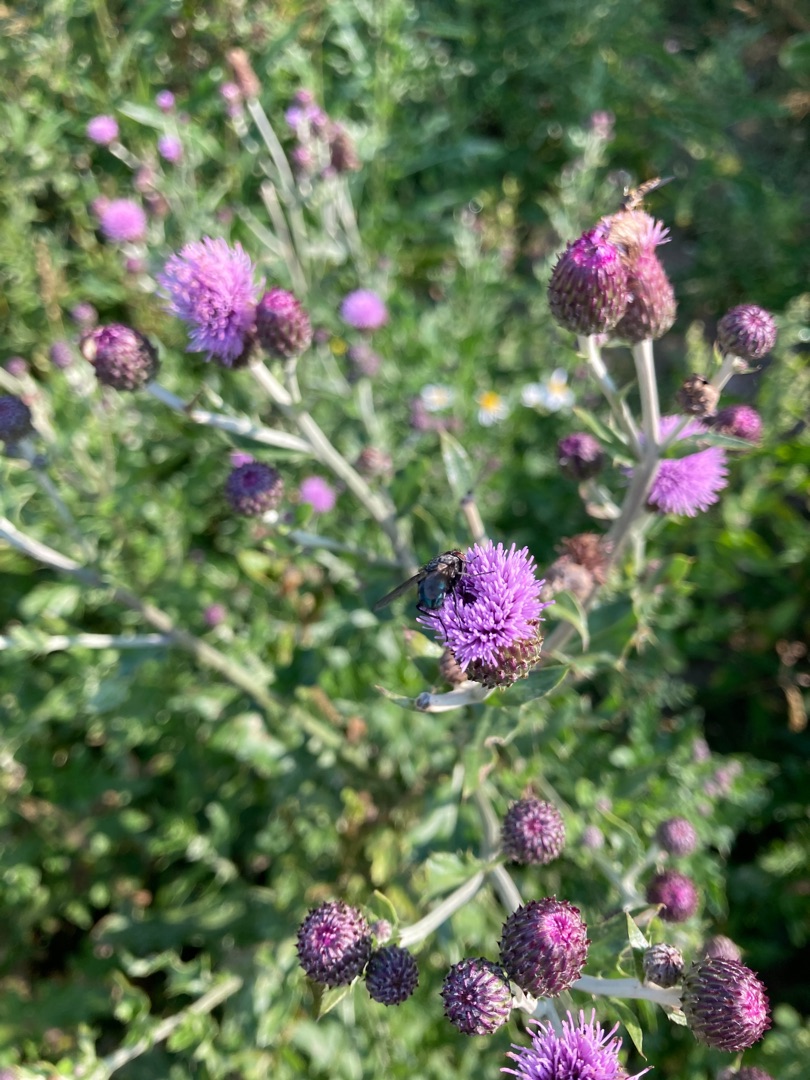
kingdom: Plantae
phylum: Tracheophyta
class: Magnoliopsida
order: Asterales
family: Asteraceae
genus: Cirsium
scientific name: Cirsium arvense
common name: Ager-tidsel
